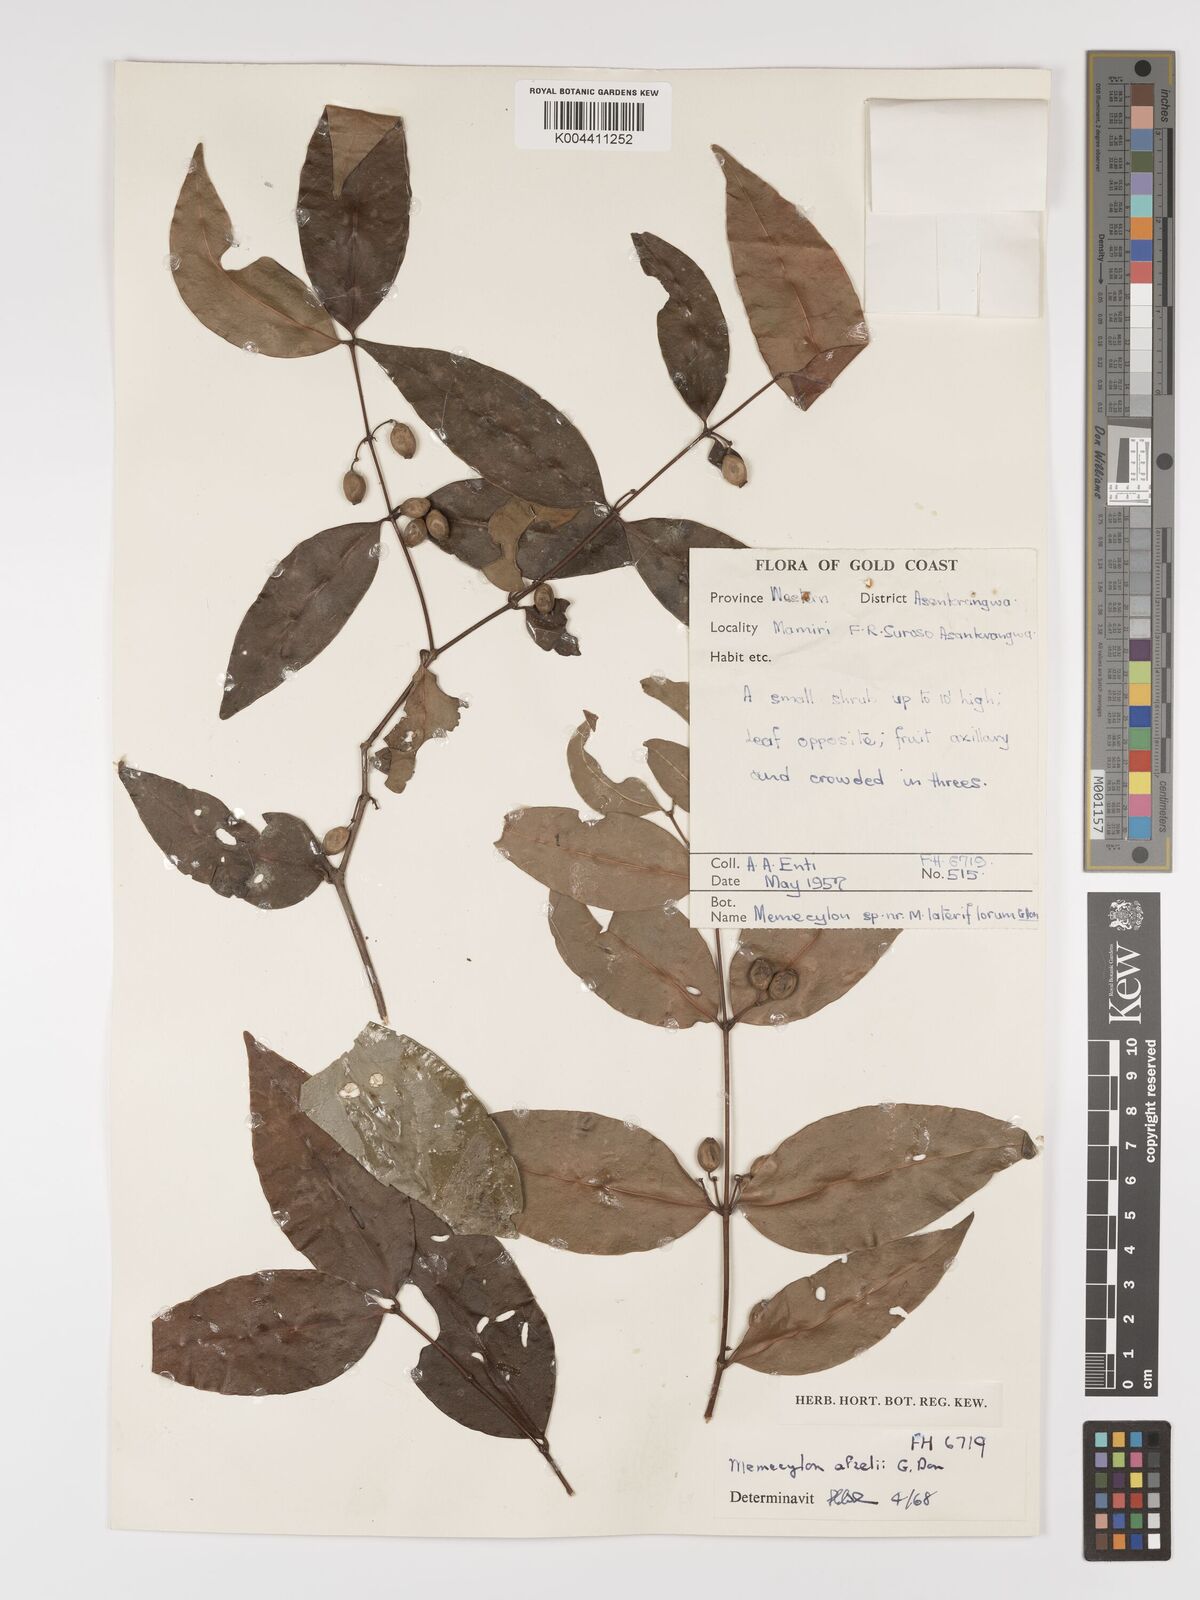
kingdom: Plantae
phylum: Tracheophyta
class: Magnoliopsida
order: Myrtales
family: Melastomataceae
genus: Memecylon
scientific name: Memecylon afzelii
